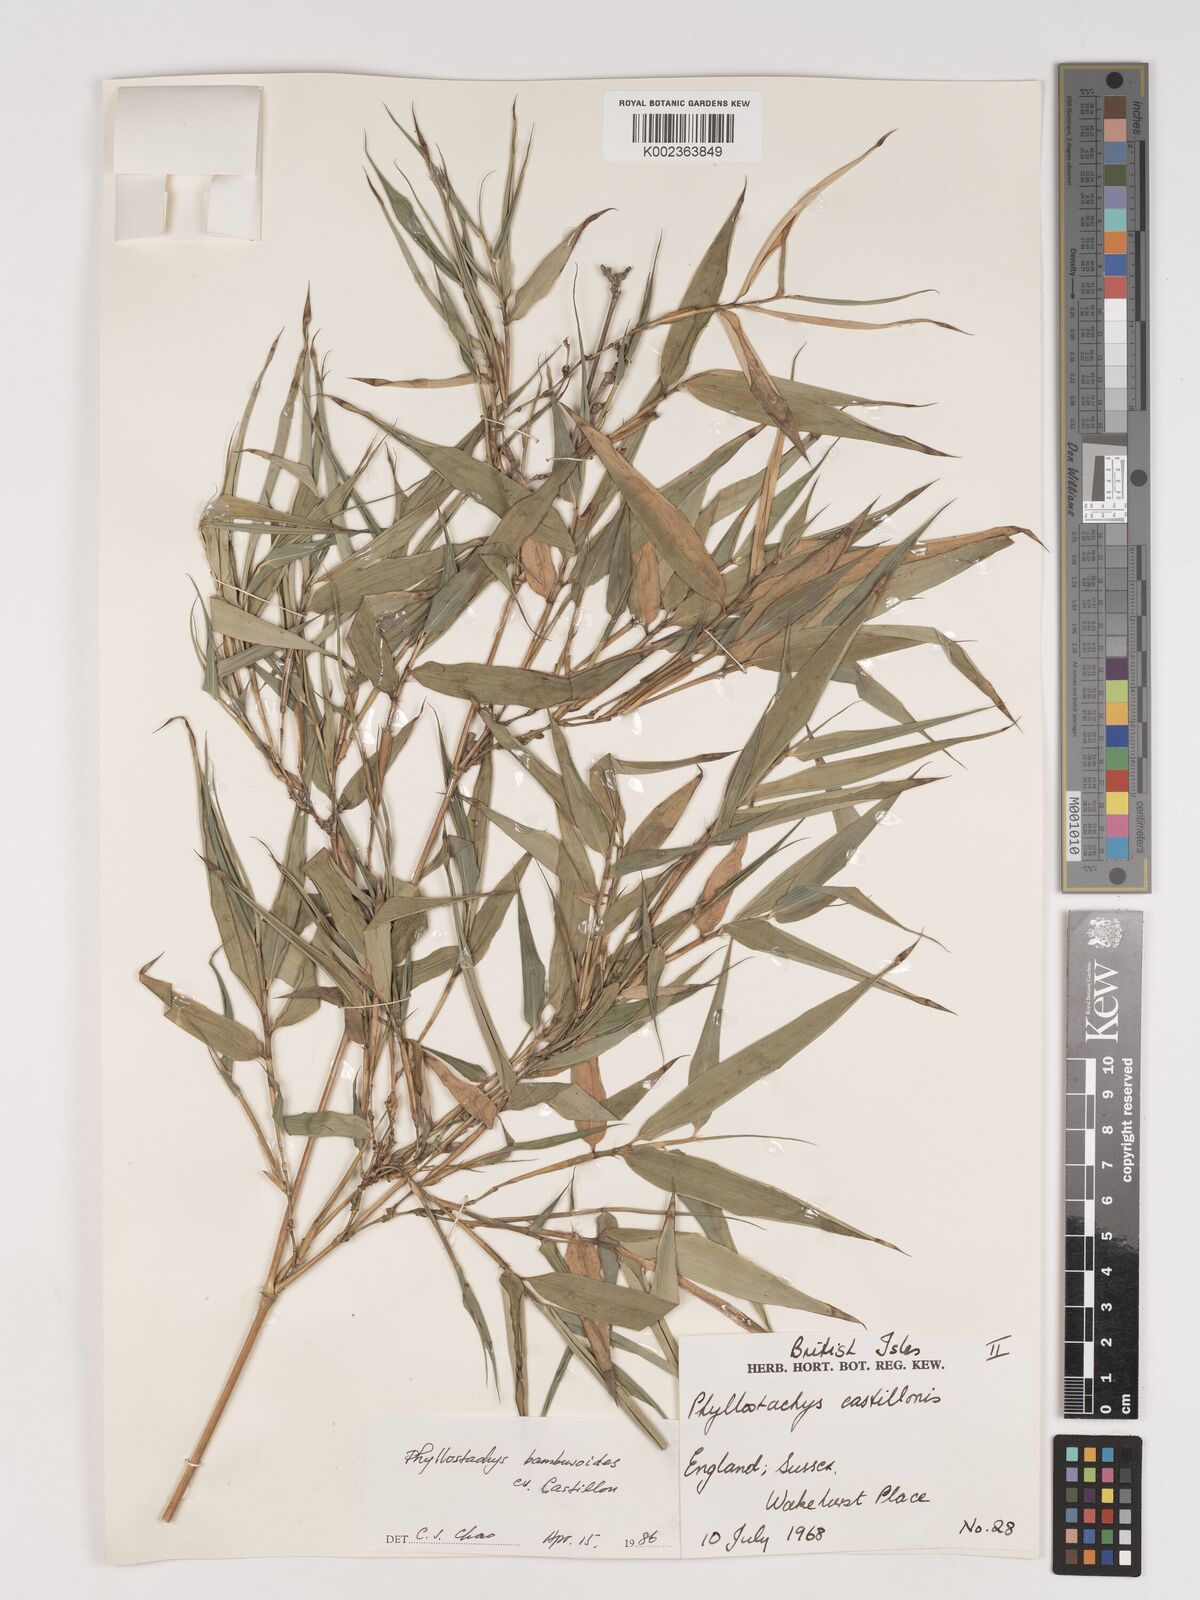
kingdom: Plantae
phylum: Tracheophyta
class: Liliopsida
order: Poales
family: Poaceae
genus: Phyllostachys
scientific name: Phyllostachys reticulata
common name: Bamboo
